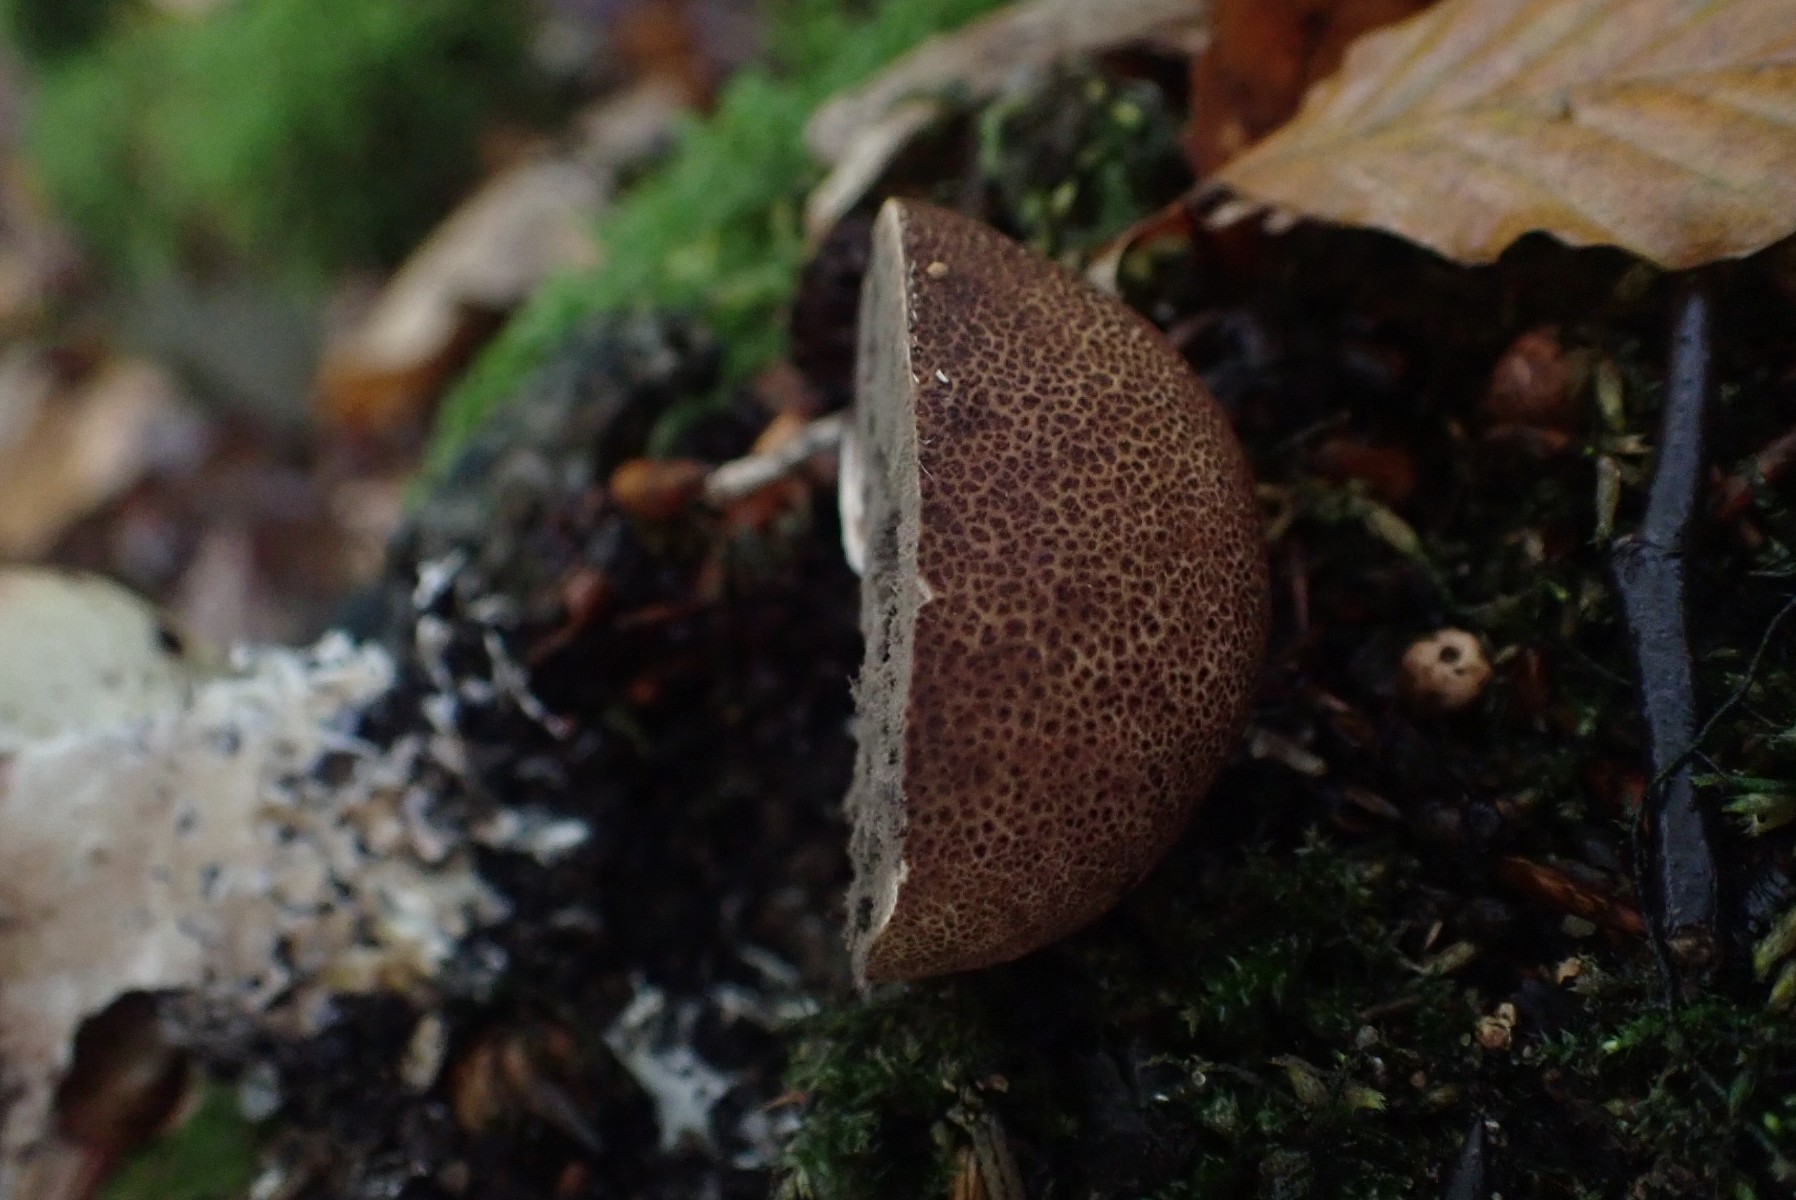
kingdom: Fungi
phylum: Basidiomycota
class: Agaricomycetes
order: Boletales
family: Sclerodermataceae
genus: Scleroderma
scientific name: Scleroderma areolatum
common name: plettet bruskbold
